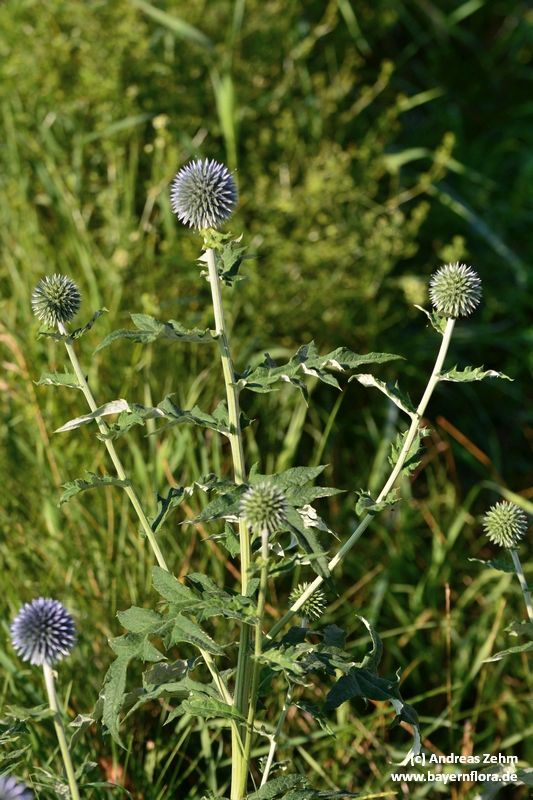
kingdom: Plantae
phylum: Tracheophyta
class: Magnoliopsida
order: Asterales
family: Asteraceae
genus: Echinops
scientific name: Echinops bannaticus
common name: Blue globe-thistle
